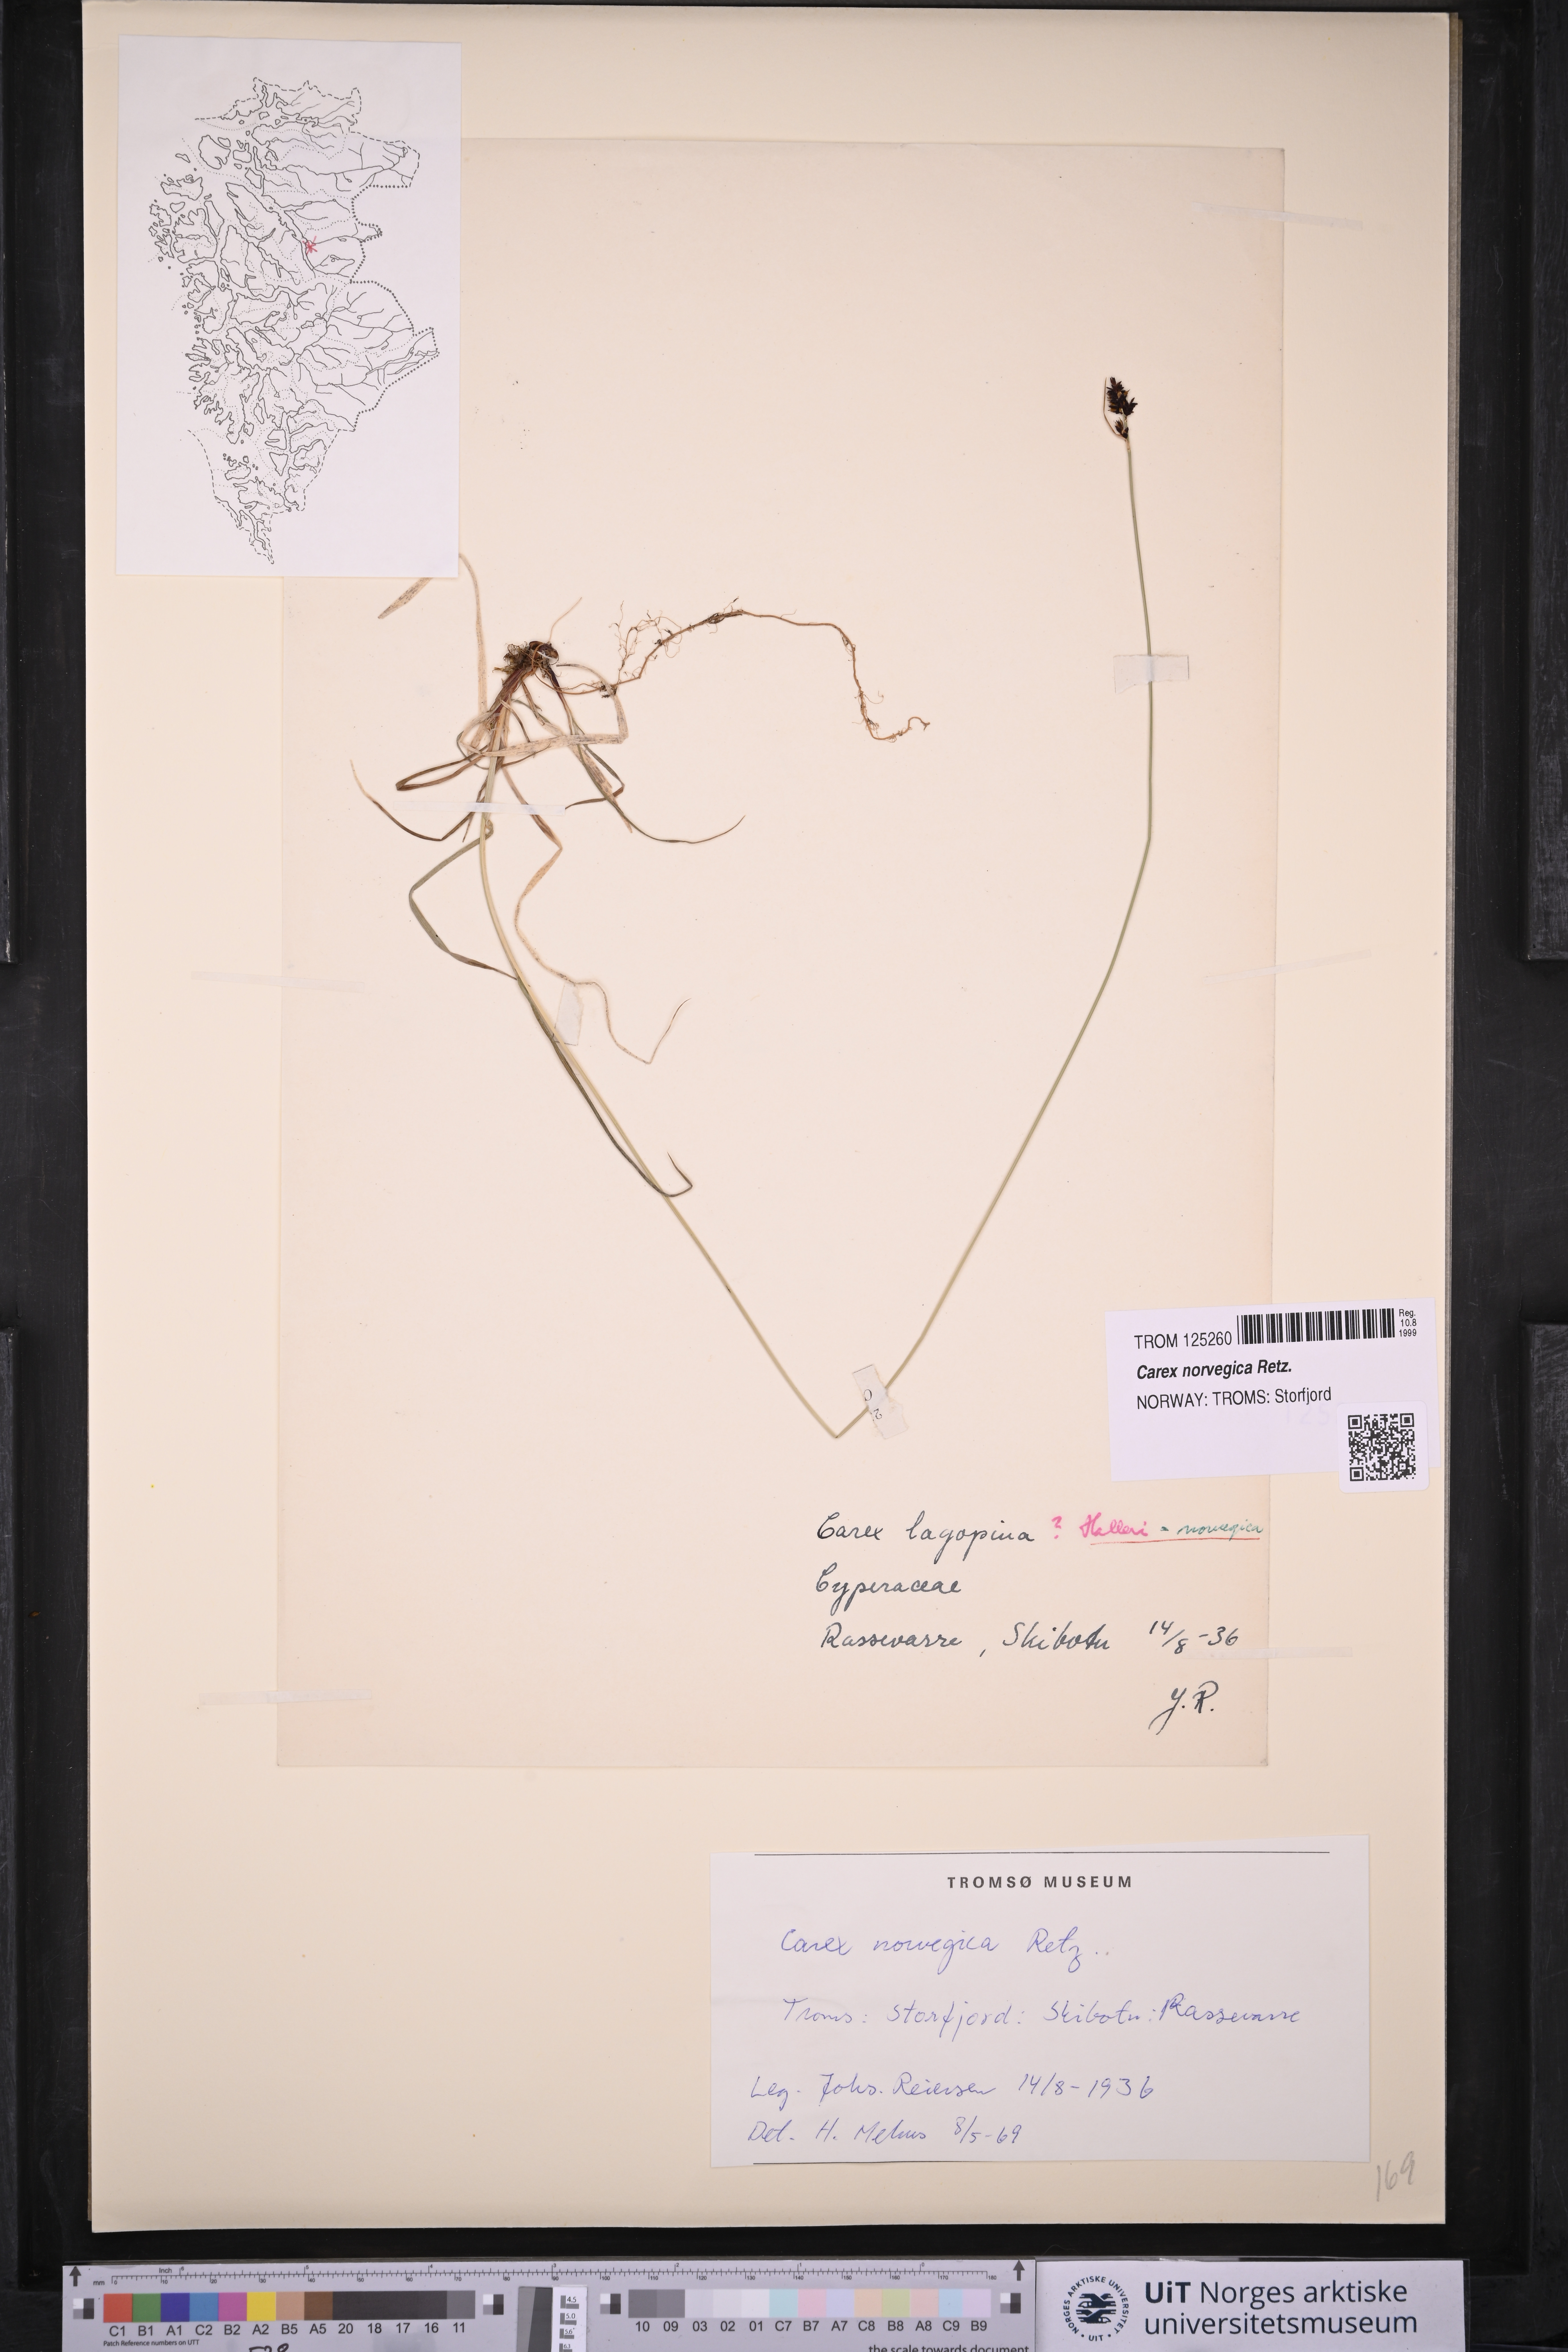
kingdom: Plantae
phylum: Tracheophyta
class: Liliopsida
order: Poales
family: Cyperaceae
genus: Carex
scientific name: Carex norvegica
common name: Close-headed alpine-sedge
